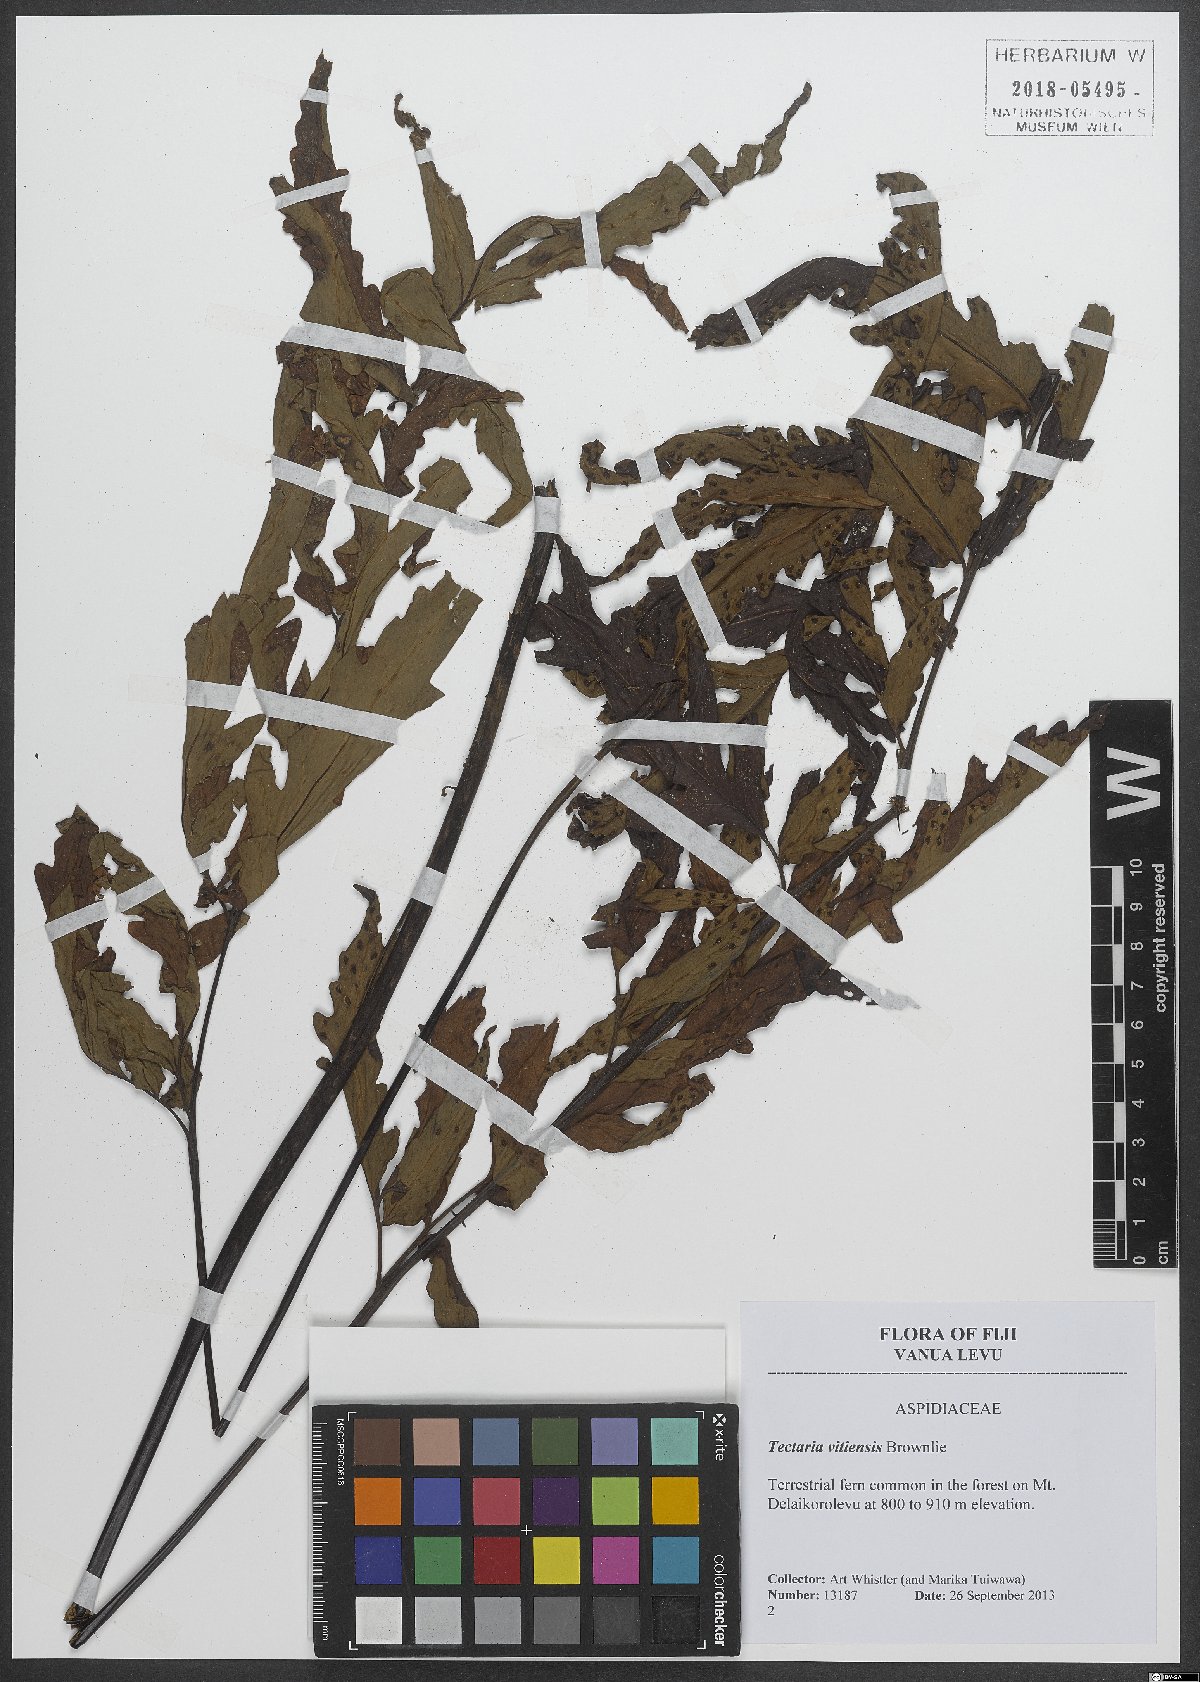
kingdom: Plantae
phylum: Tracheophyta
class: Polypodiopsida
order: Polypodiales
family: Tectariaceae
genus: Tectaria
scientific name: Tectaria vitiensis
